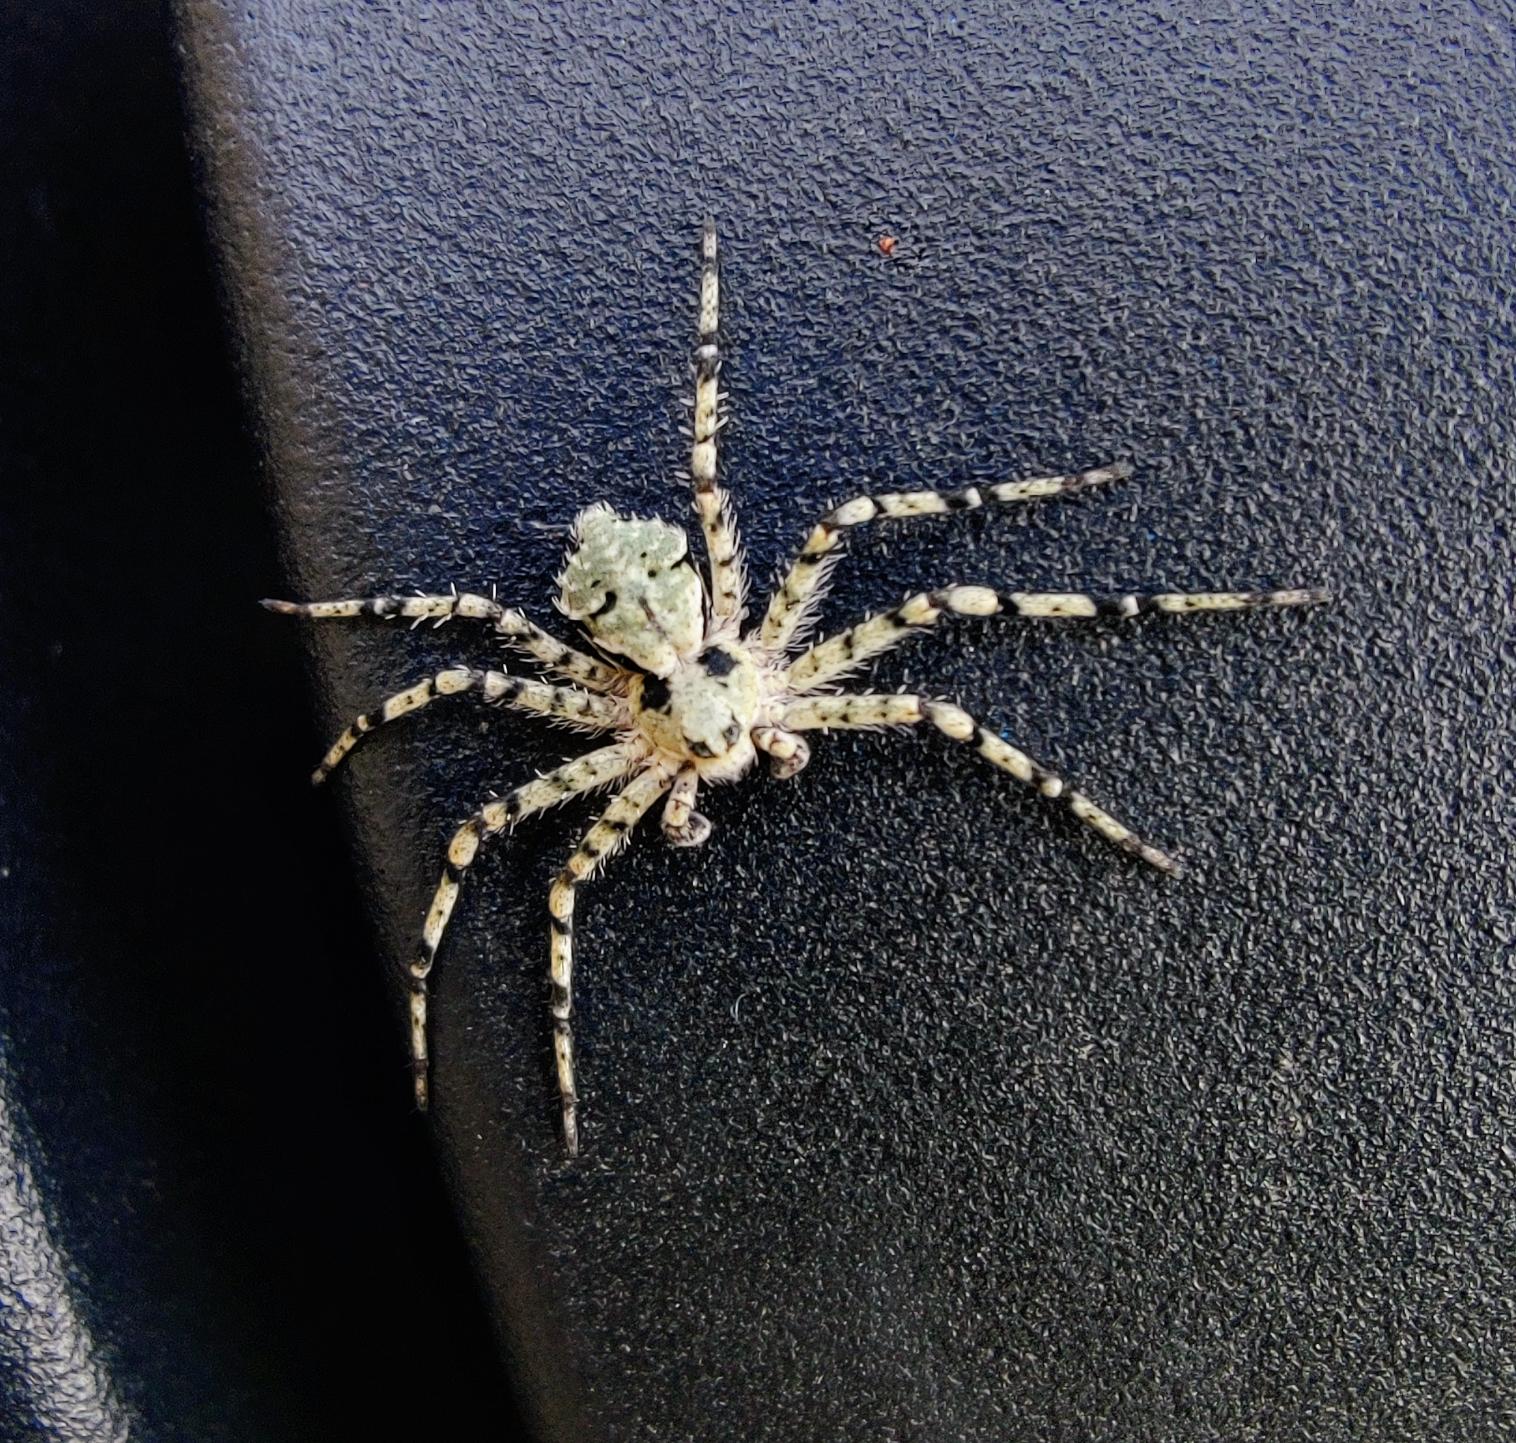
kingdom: Animalia
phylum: Arthropoda
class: Arachnida
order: Araneae
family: Philodromidae
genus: Philodromus
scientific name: Philodromus margaritatus
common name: Dødningehoved-edderkop
